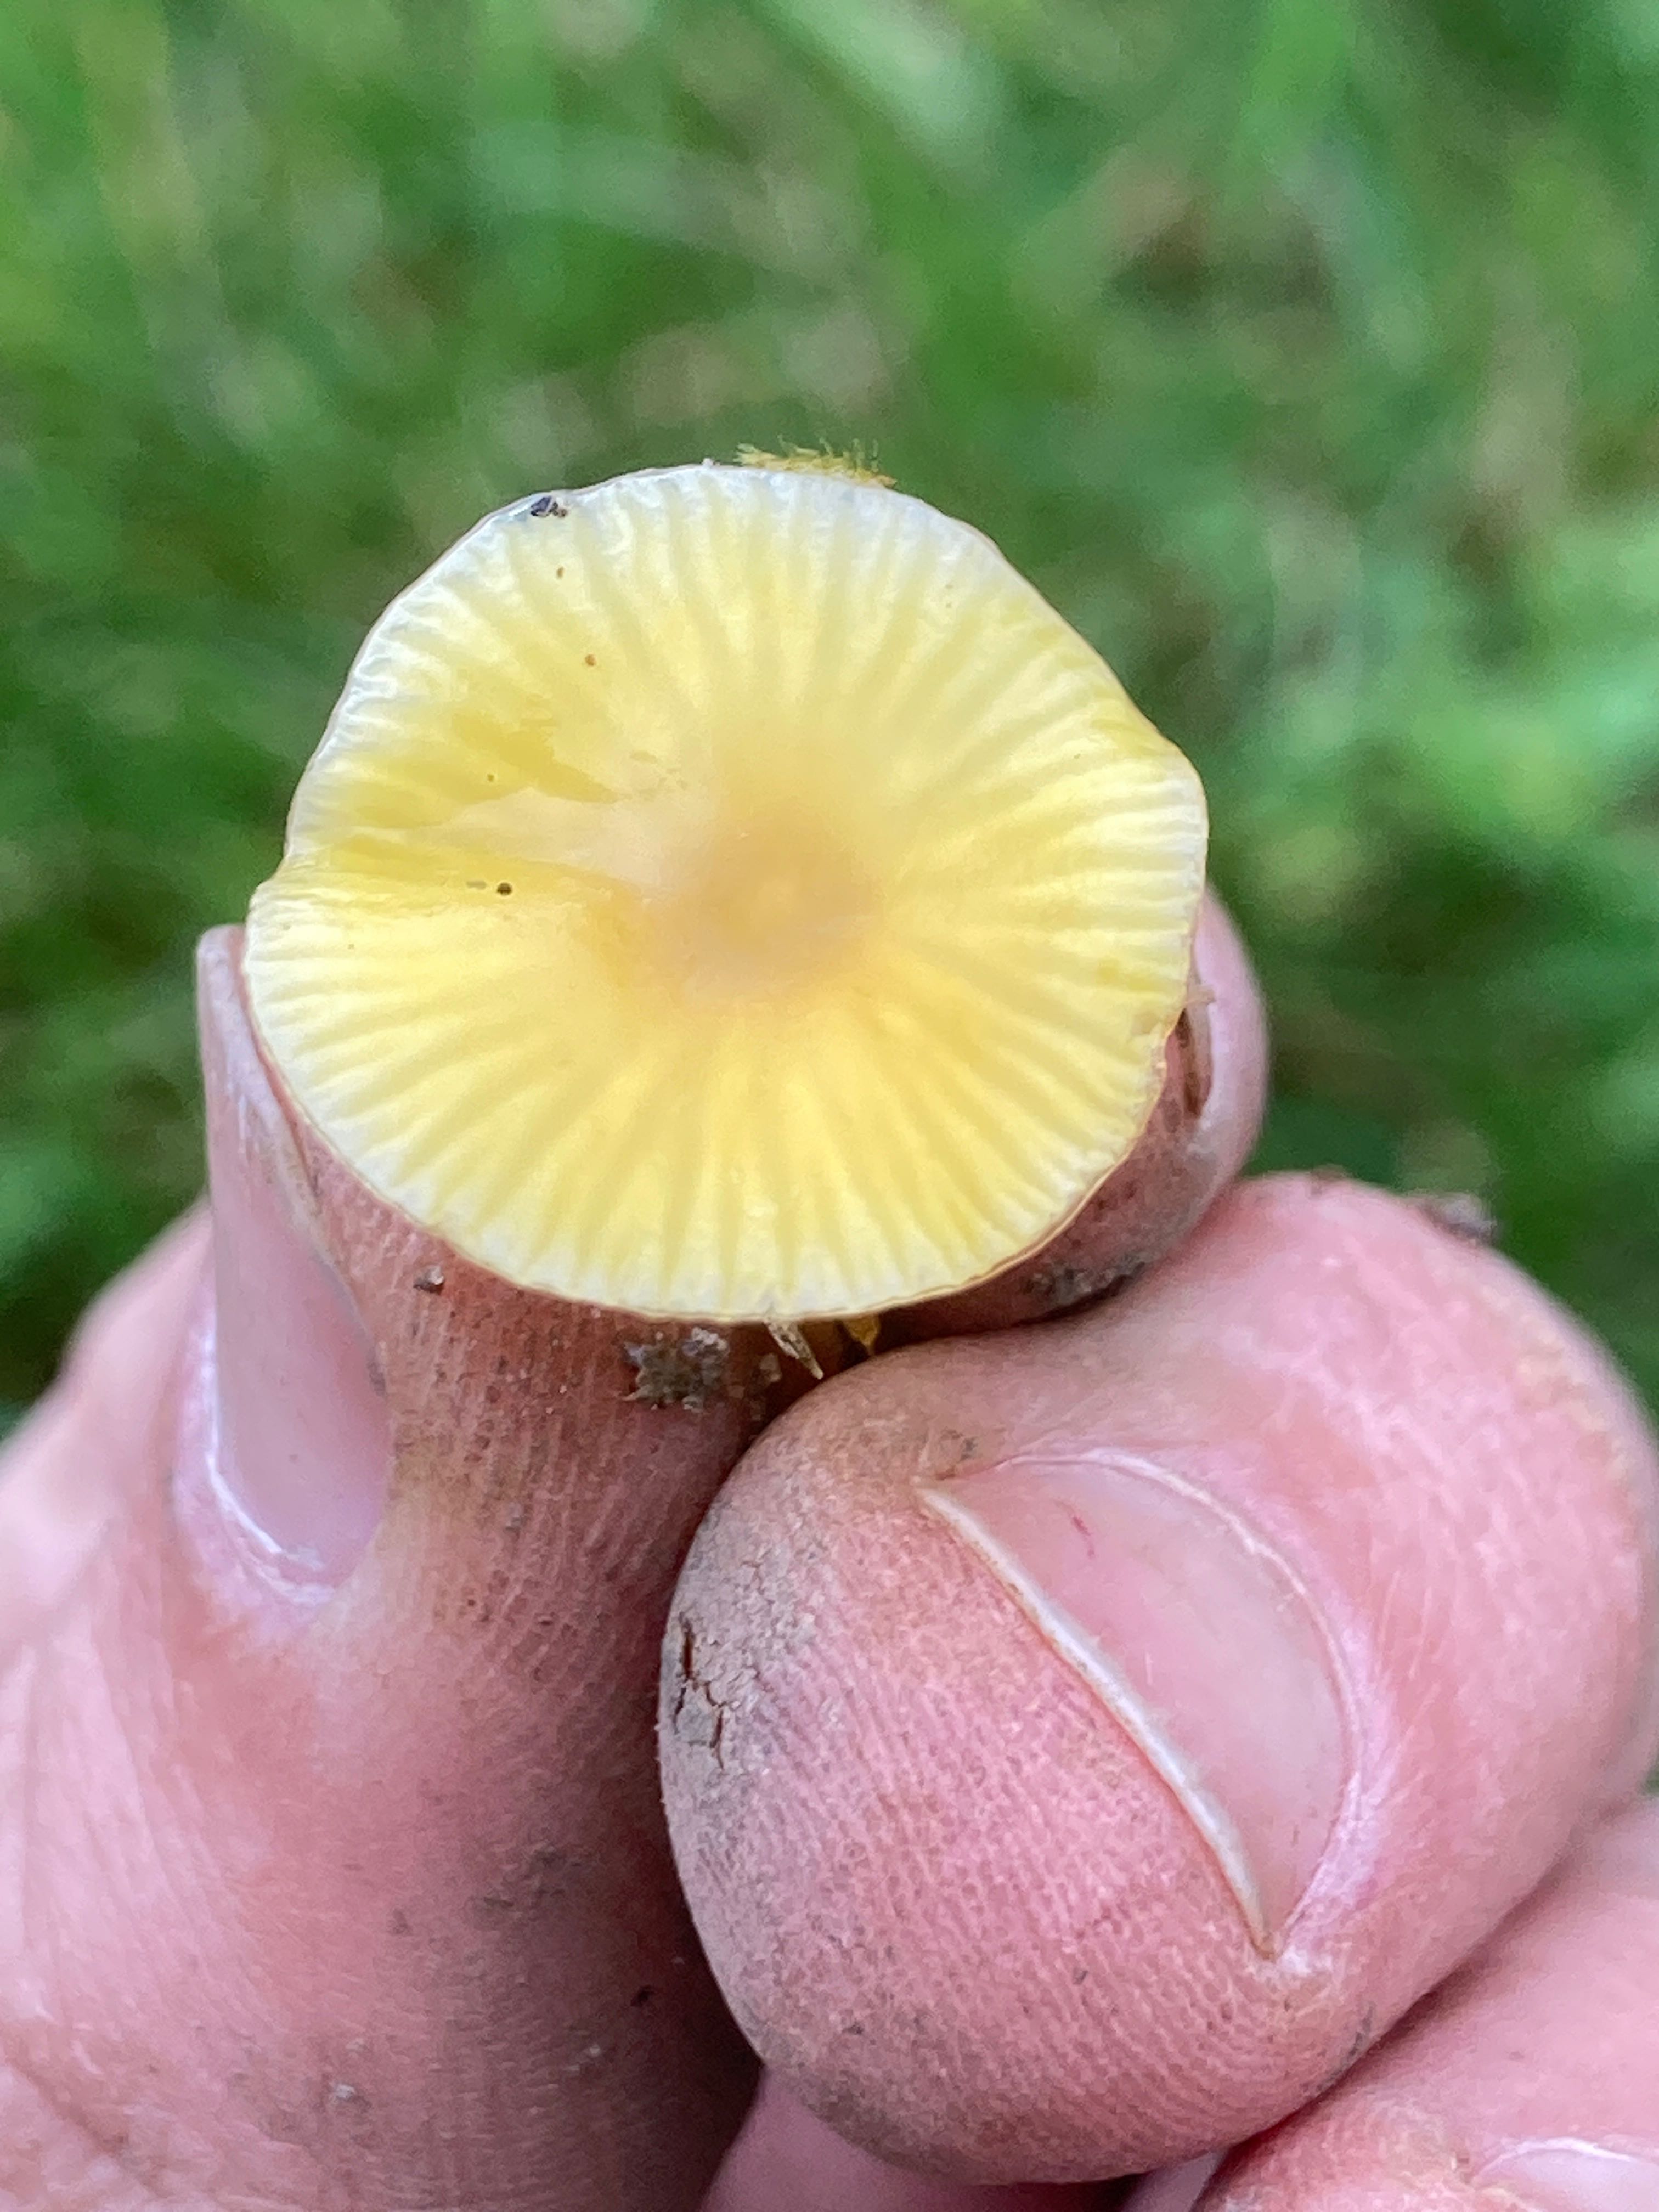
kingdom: Fungi
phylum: Basidiomycota
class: Agaricomycetes
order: Agaricales
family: Hygrophoraceae
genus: Hygrocybe
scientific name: Hygrocybe glutinipes
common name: slimstokket vokshat
